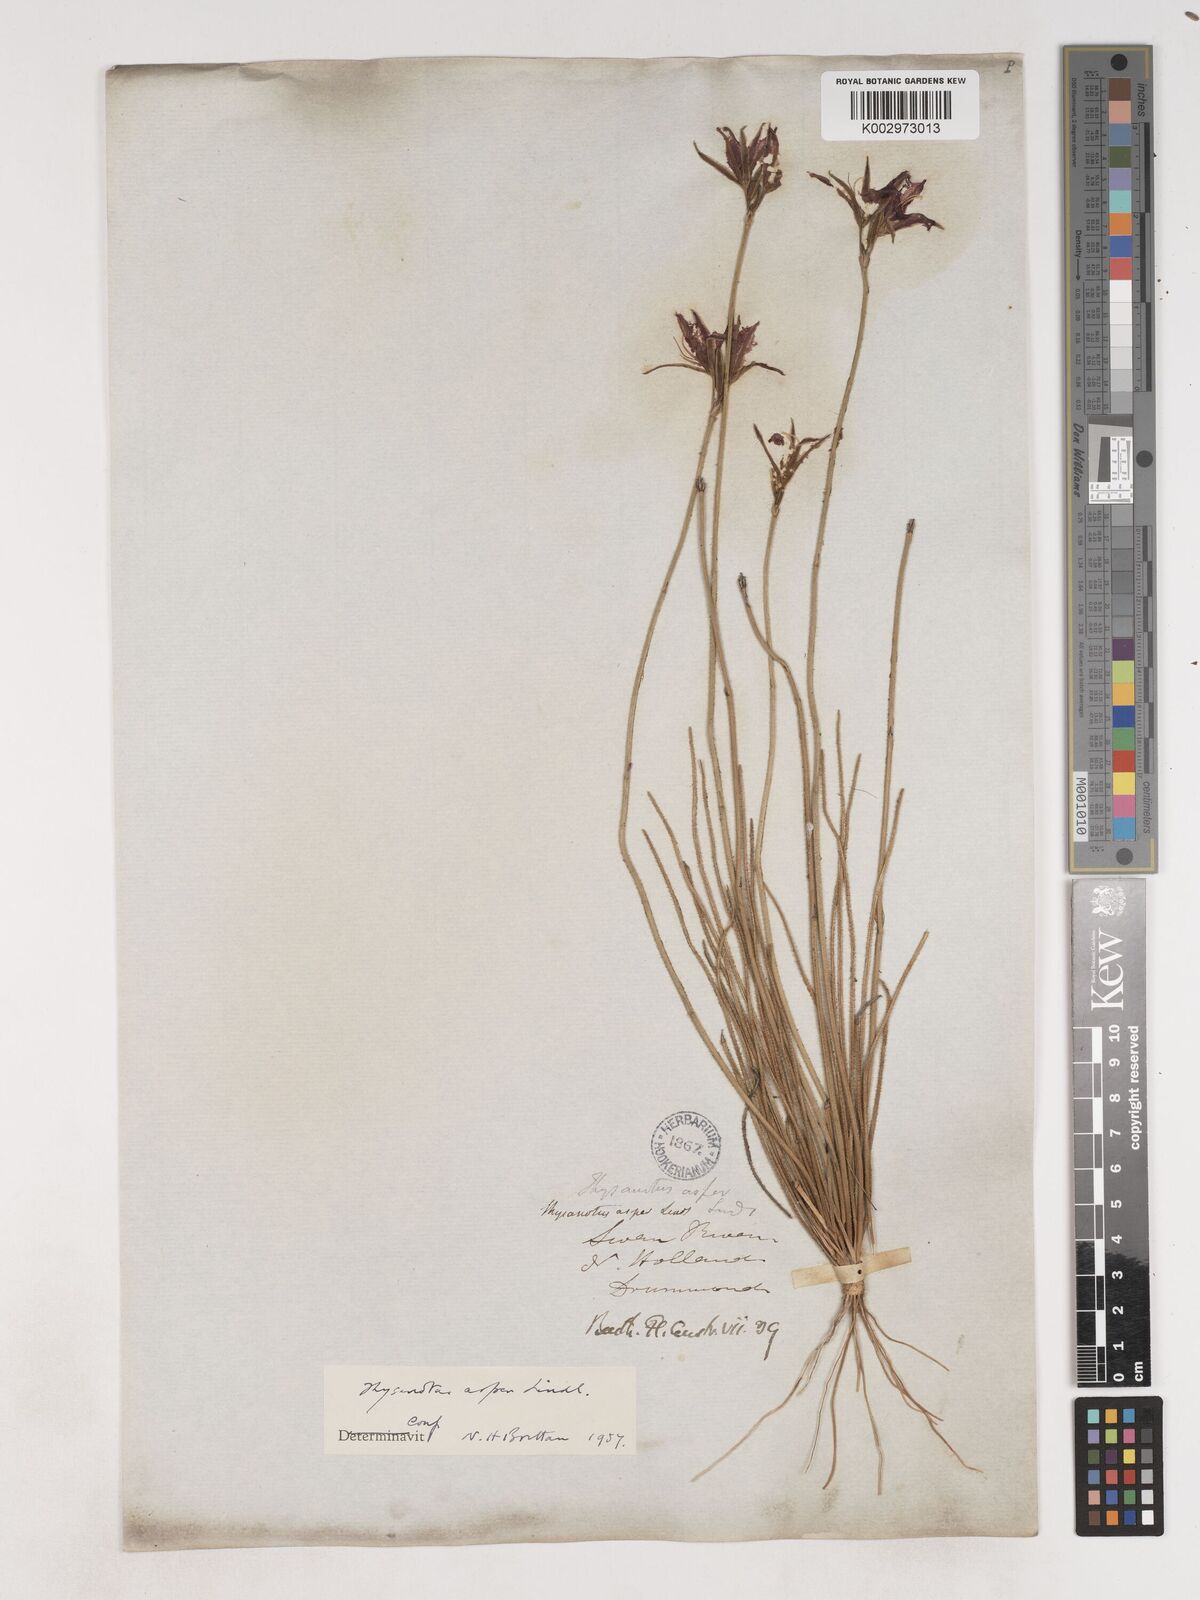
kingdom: Plantae
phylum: Tracheophyta
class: Liliopsida
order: Asparagales
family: Asparagaceae
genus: Thysanotus
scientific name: Thysanotus asper
